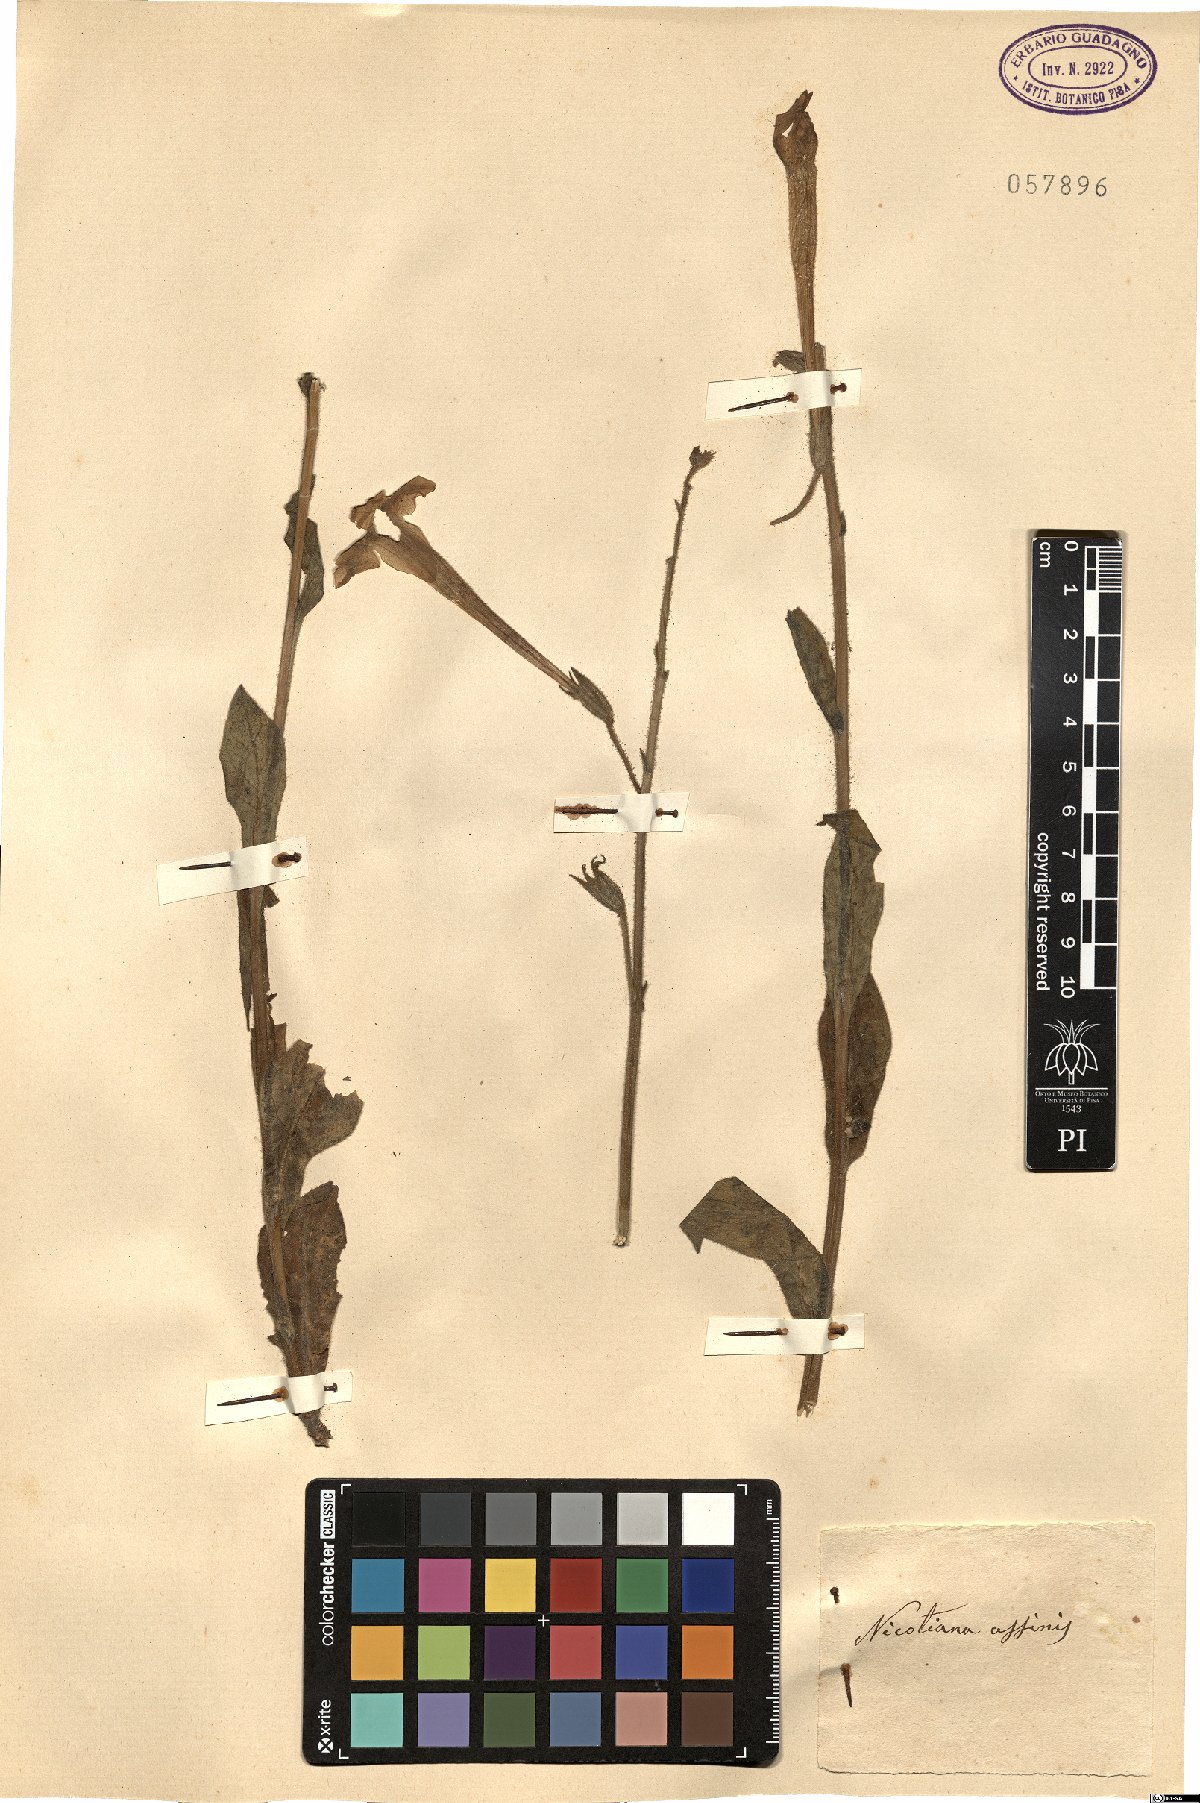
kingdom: Plantae
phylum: Tracheophyta
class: Magnoliopsida
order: Solanales
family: Solanaceae
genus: Nicotiana
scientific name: Nicotiana alata
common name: Jasmine tobacco
